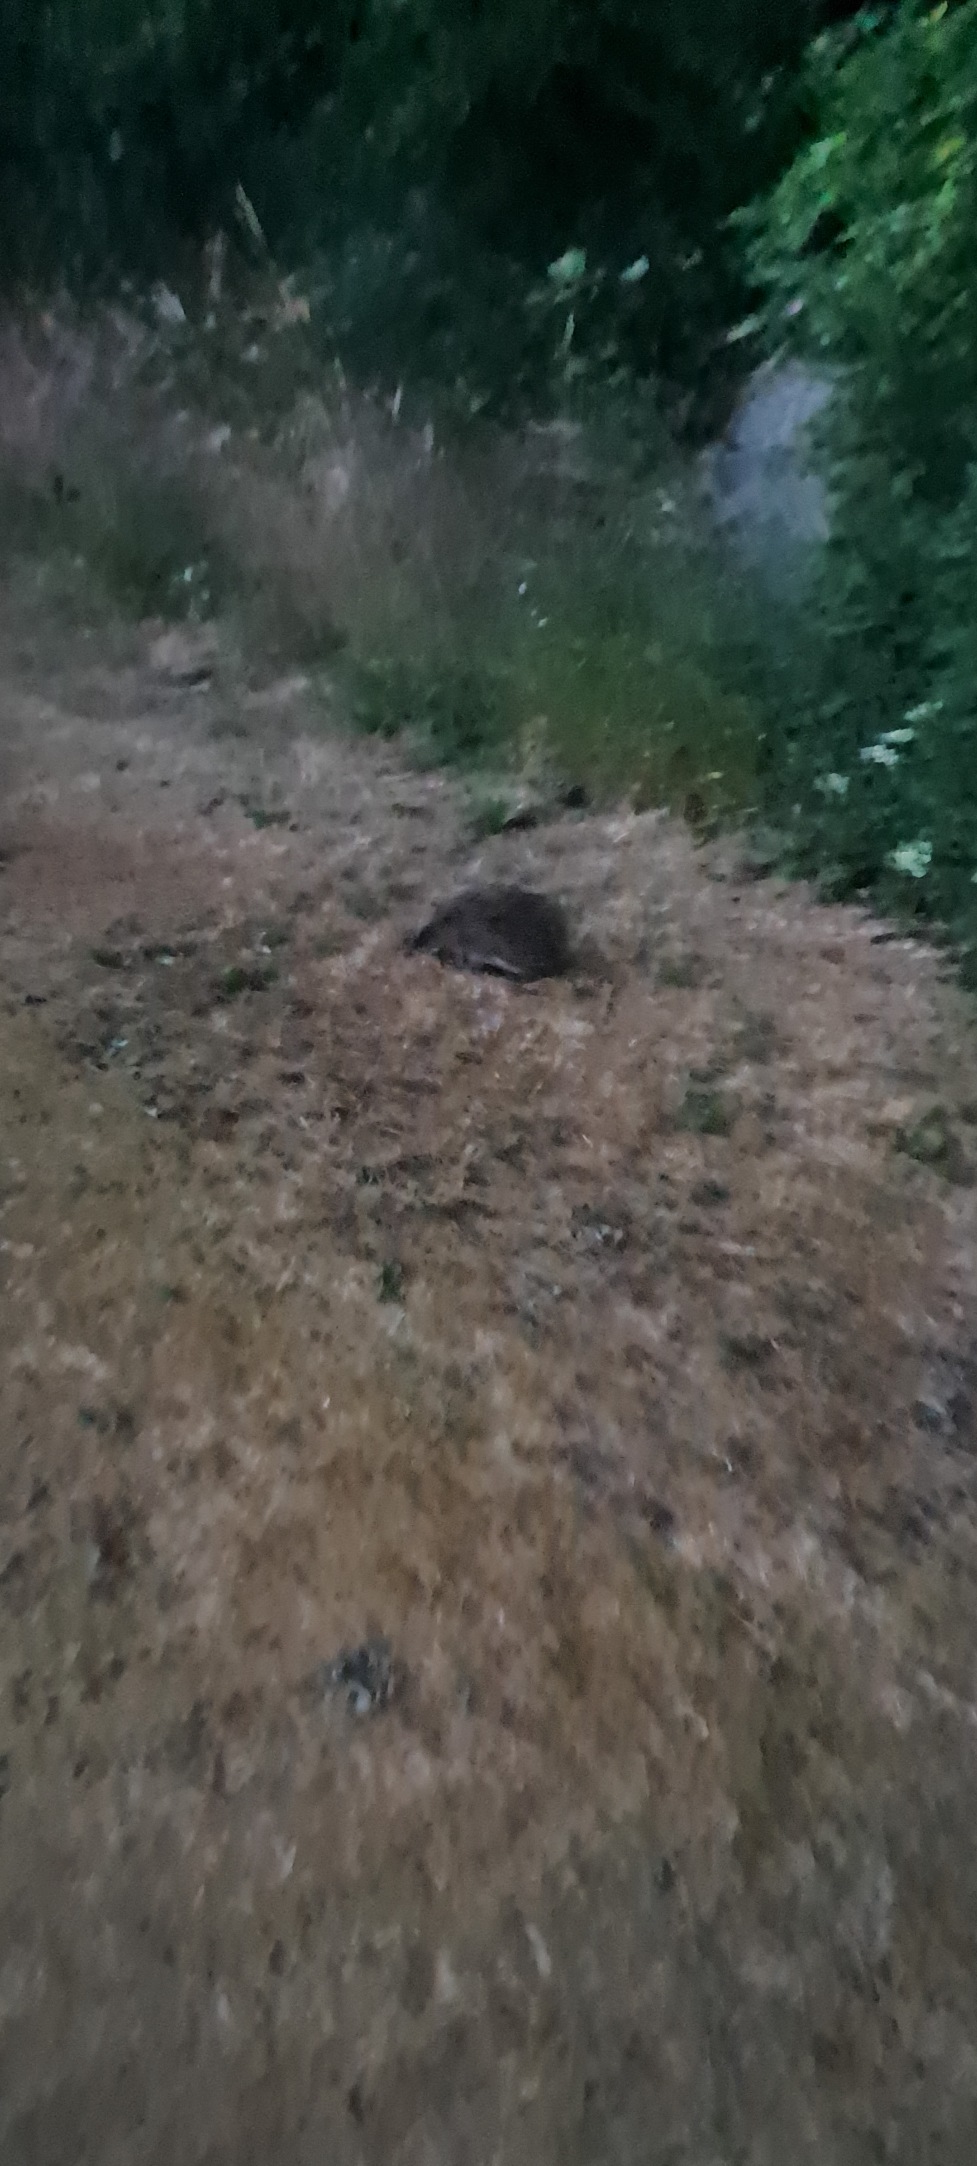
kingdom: Animalia
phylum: Chordata
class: Mammalia
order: Erinaceomorpha
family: Erinaceidae
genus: Erinaceus
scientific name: Erinaceus europaeus
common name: Pindsvin
